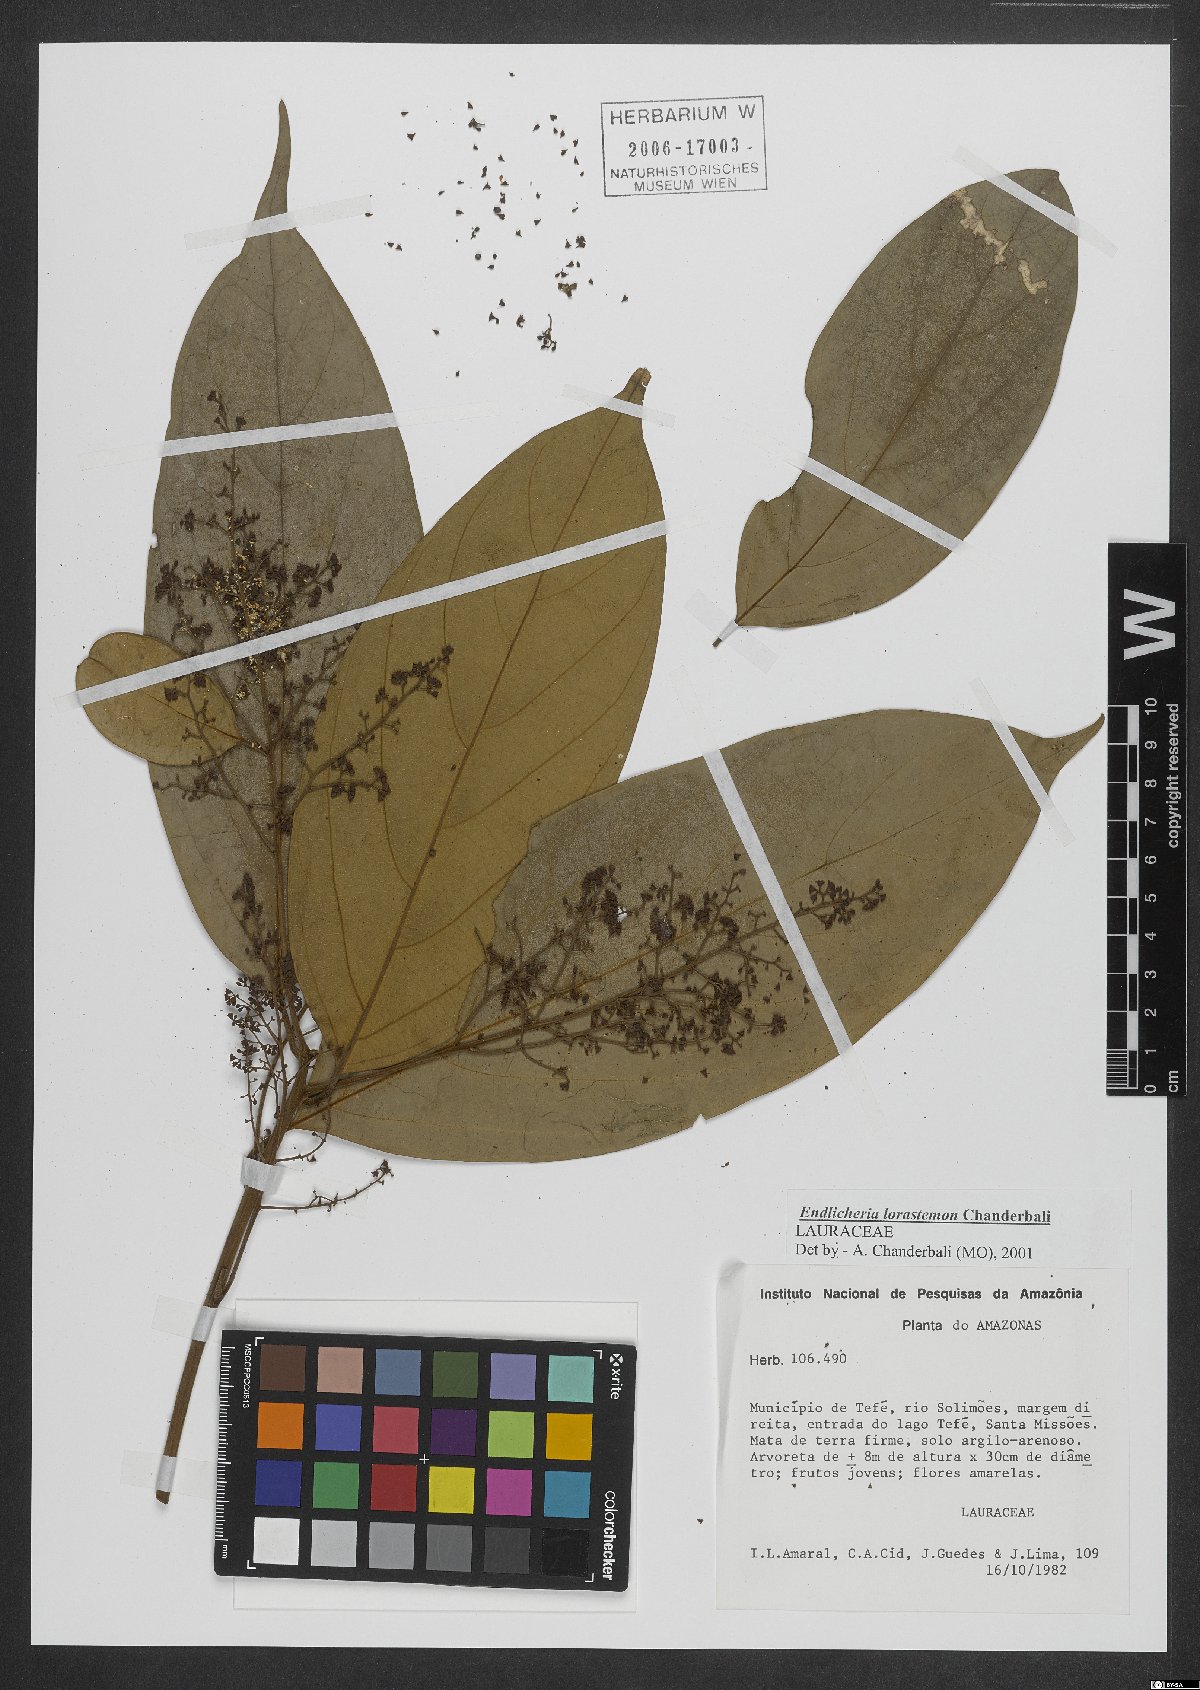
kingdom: Plantae
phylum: Tracheophyta
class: Magnoliopsida
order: Laurales
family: Lauraceae
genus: Endlicheria
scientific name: Endlicheria lorastemon
